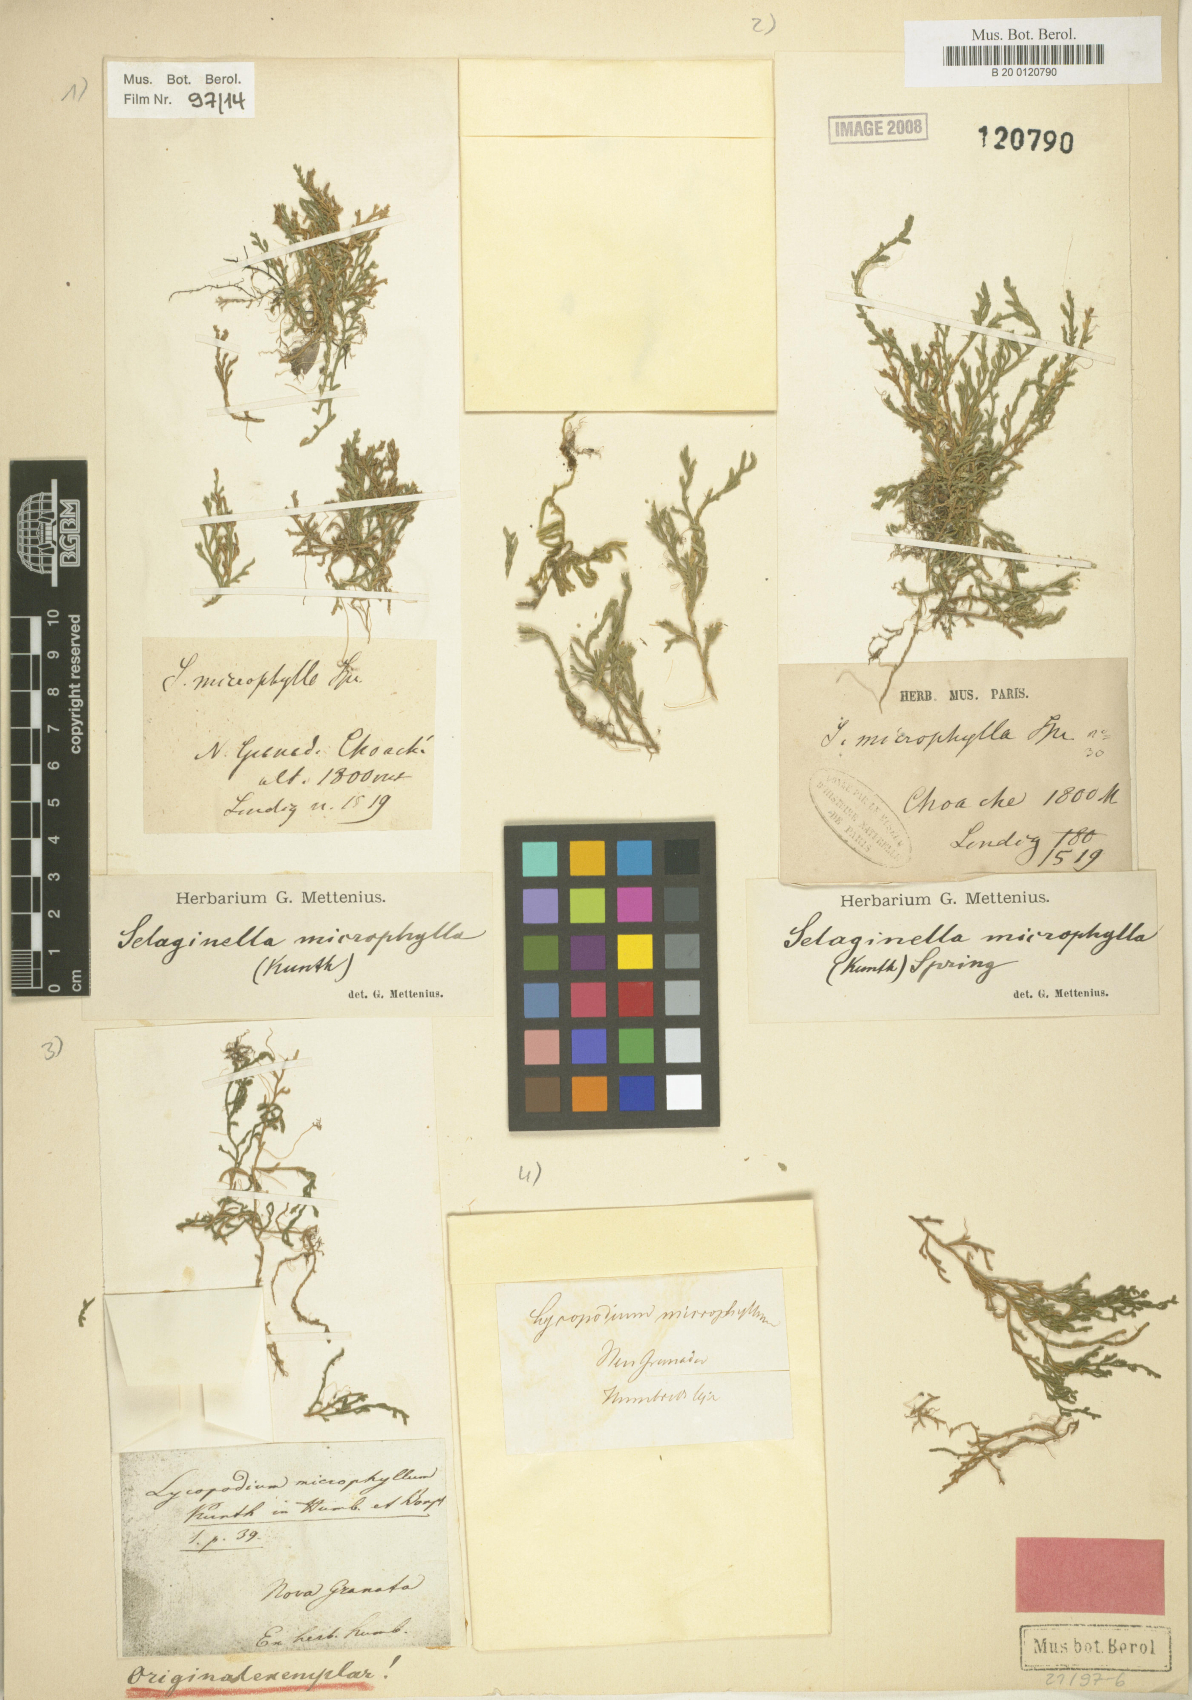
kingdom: Plantae
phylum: Tracheophyta
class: Lycopodiopsida
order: Selaginellales
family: Selaginellaceae
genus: Selaginella
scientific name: Selaginella microphylla
